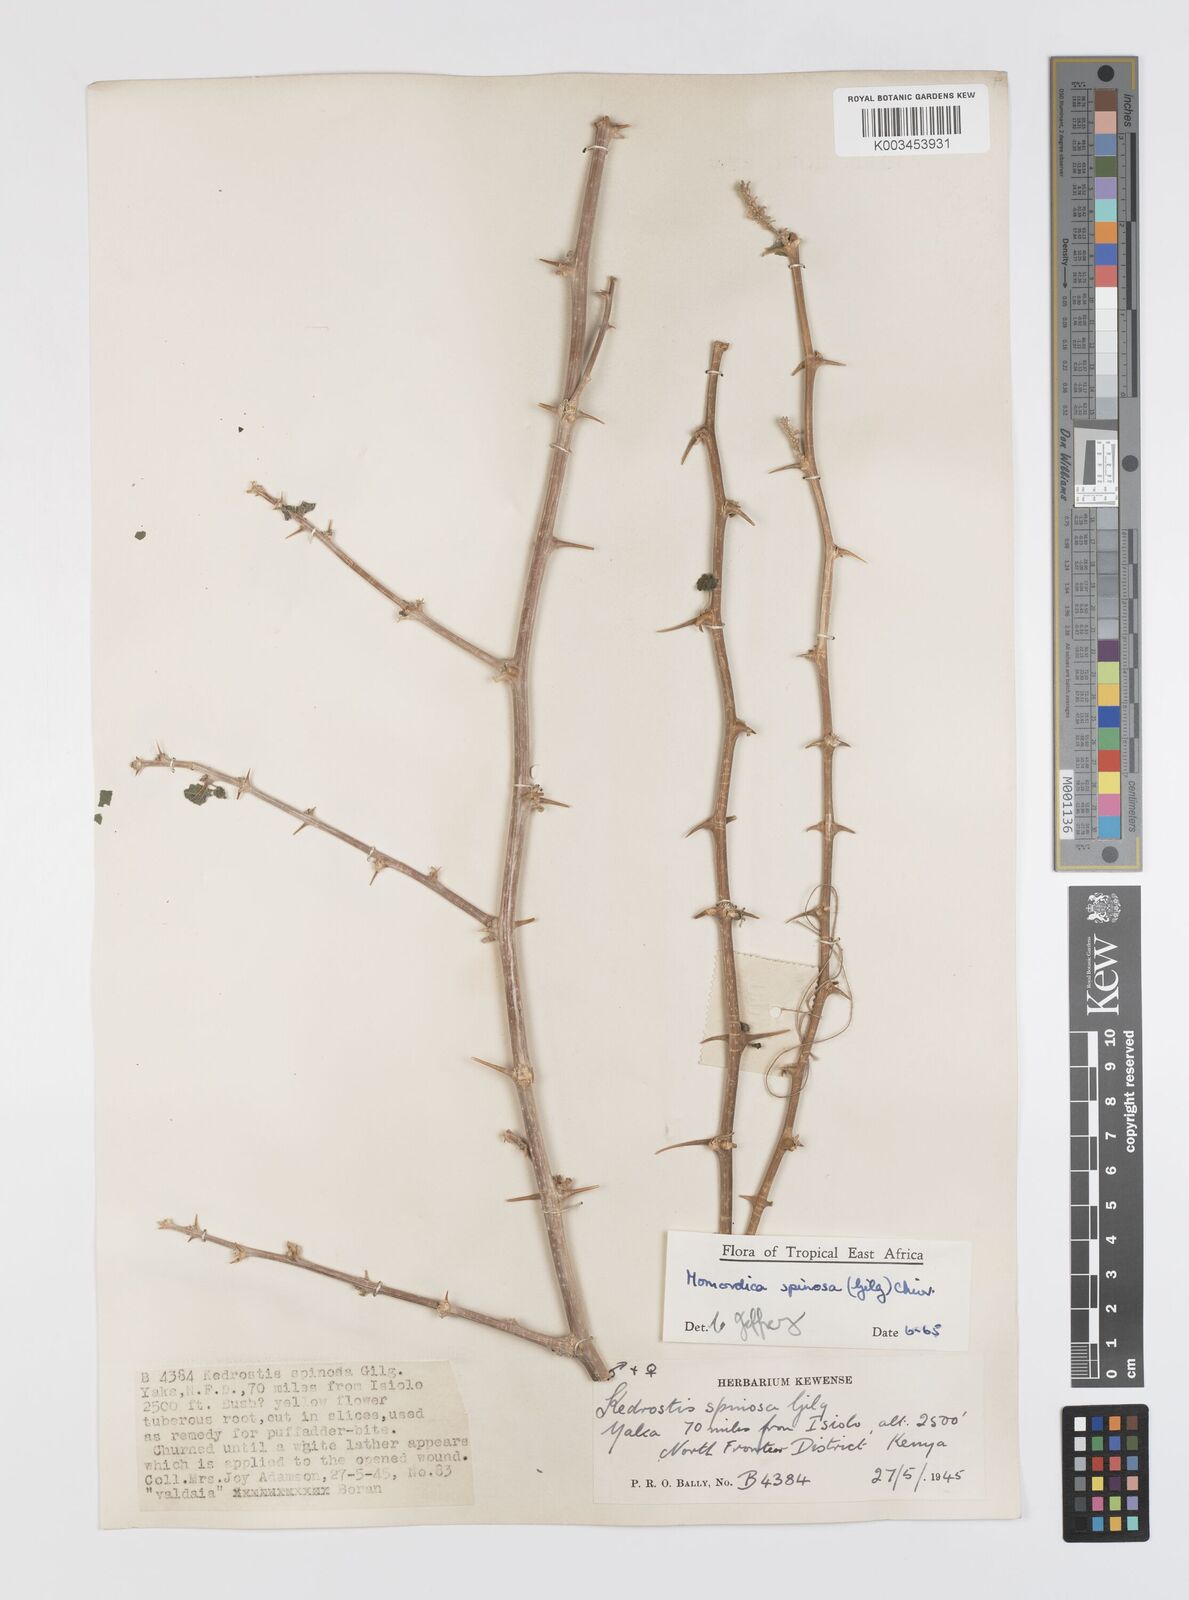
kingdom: Plantae
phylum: Tracheophyta
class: Magnoliopsida
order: Cucurbitales
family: Cucurbitaceae
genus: Momordica
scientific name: Momordica spinosa
